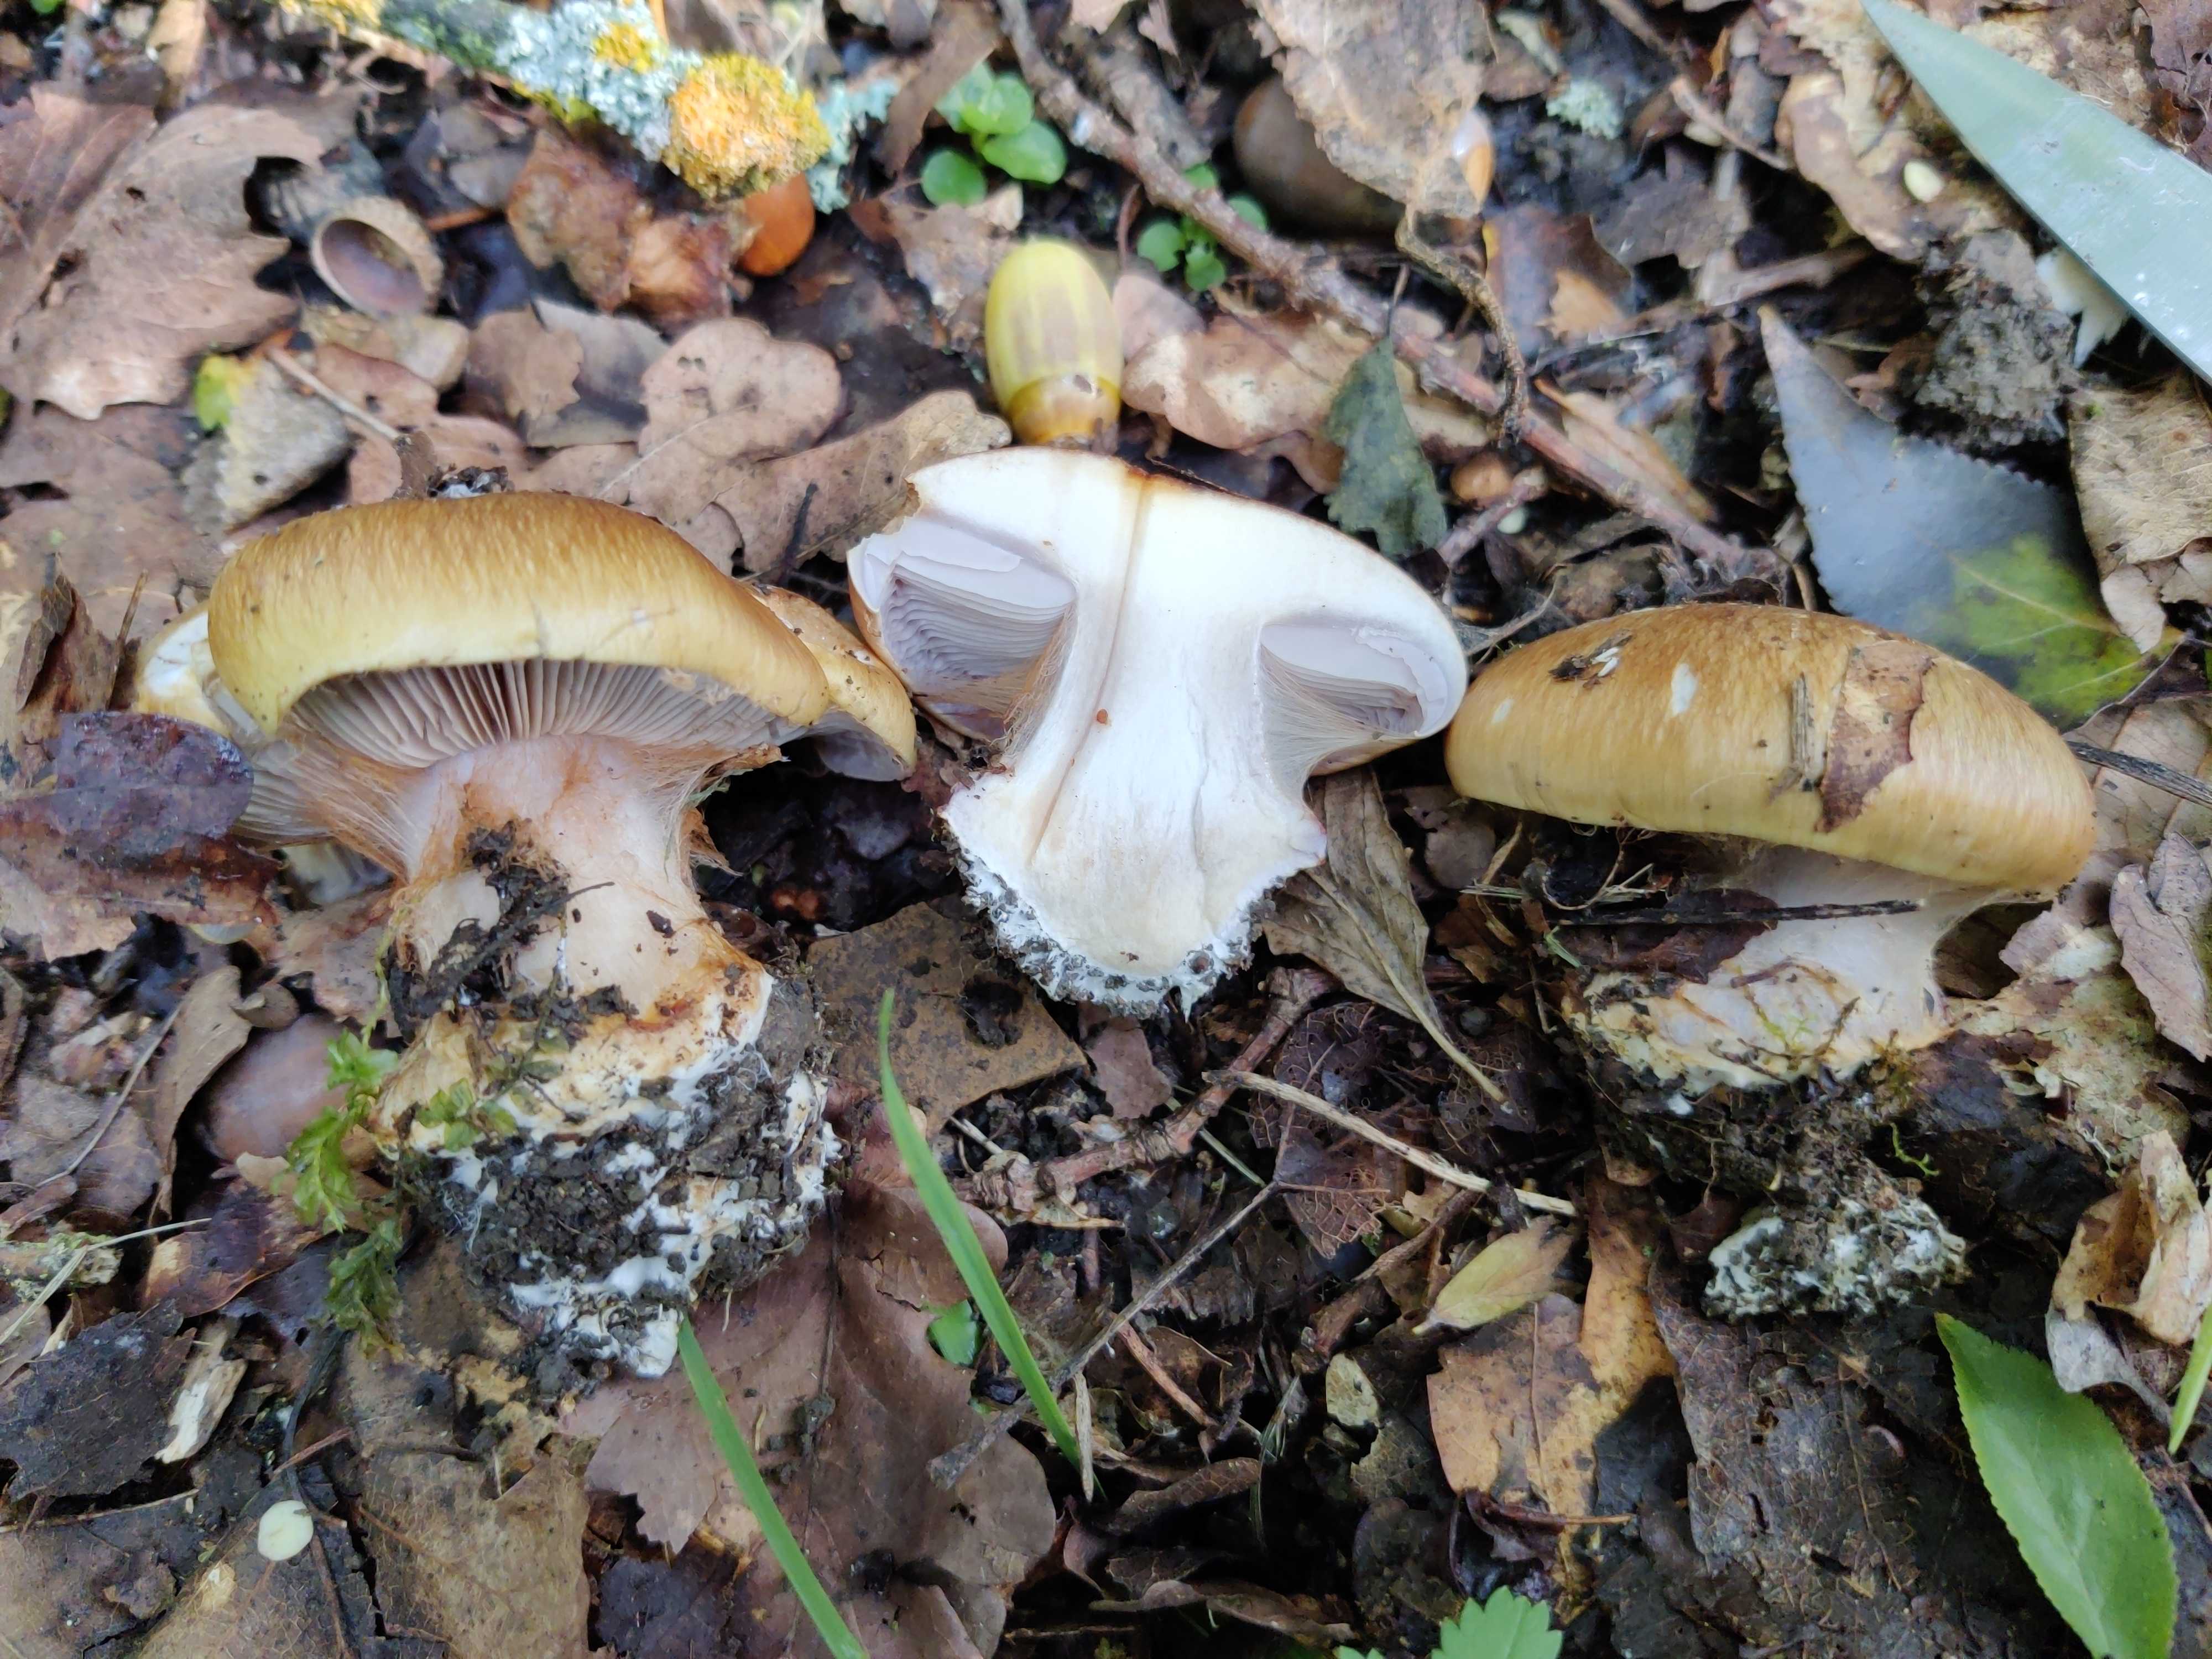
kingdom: Fungi
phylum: Basidiomycota
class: Agaricomycetes
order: Agaricales
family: Cortinariaceae
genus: Phlegmacium
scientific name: Phlegmacium
